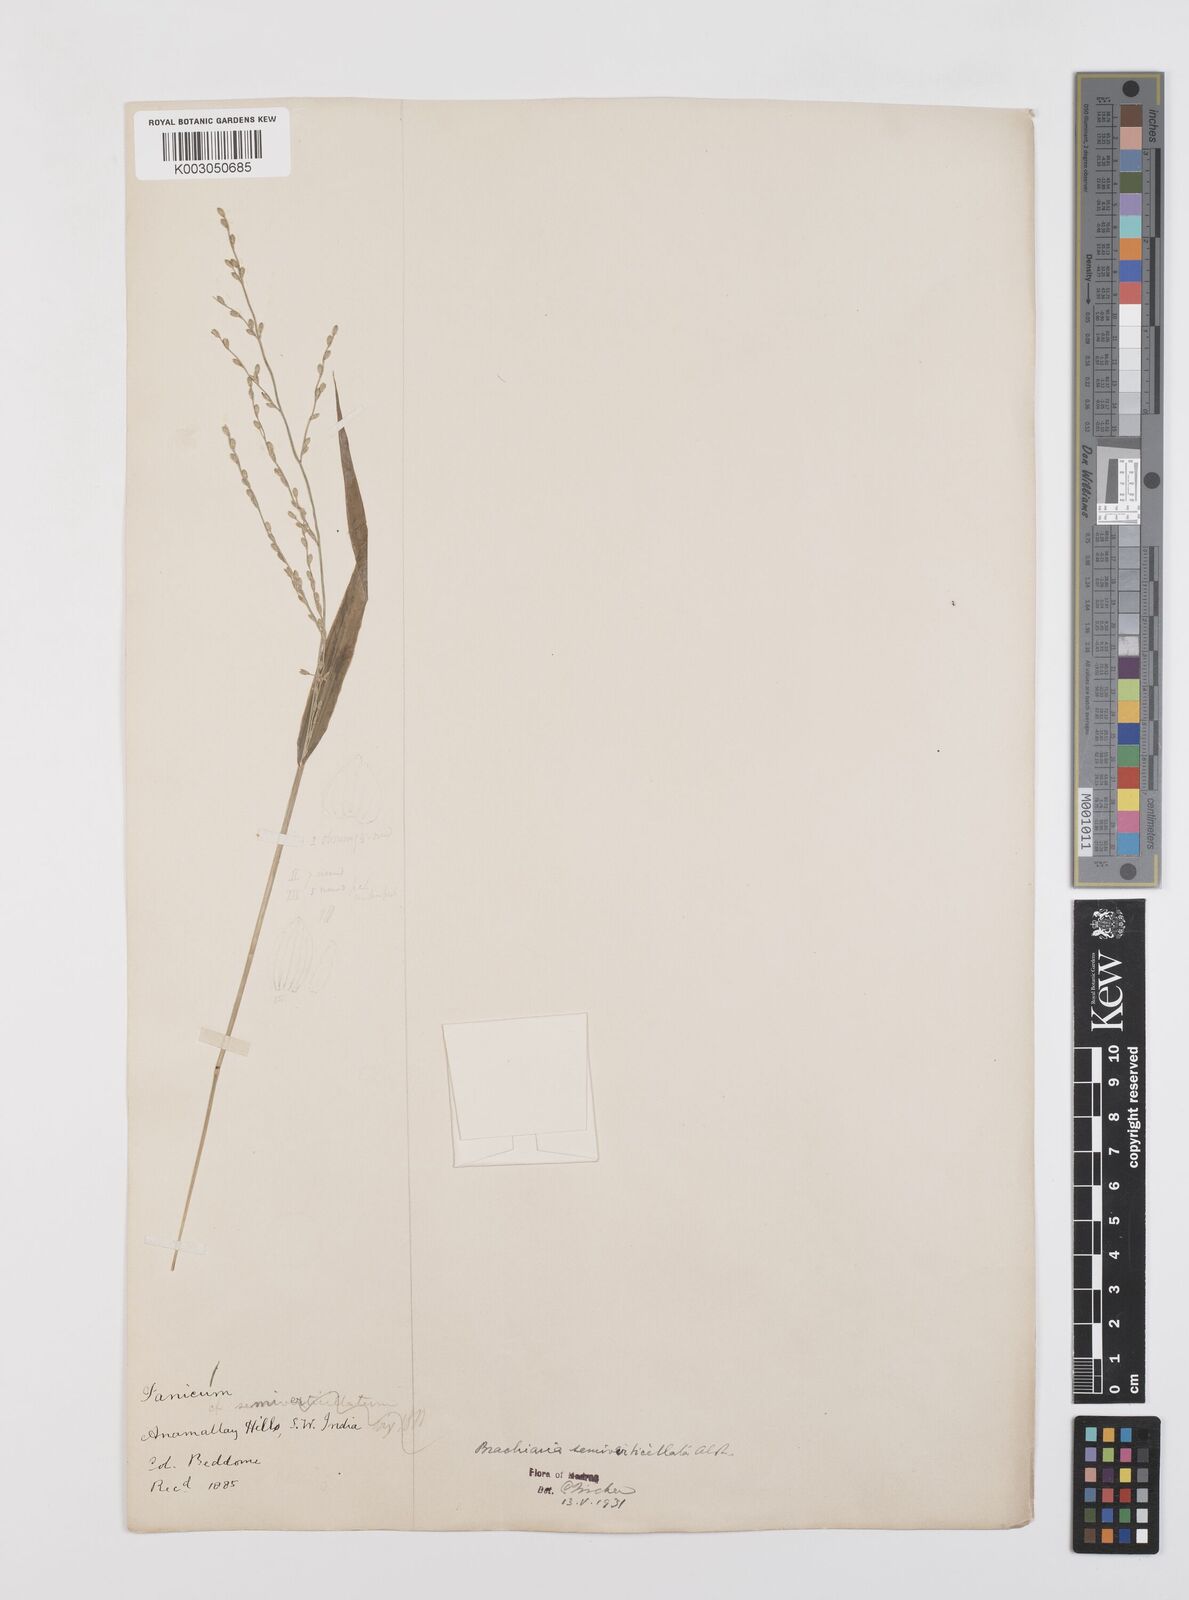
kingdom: Plantae
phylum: Tracheophyta
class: Liliopsida
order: Poales
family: Poaceae
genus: Urochloa
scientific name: Urochloa Brachiaria semiverticillata
